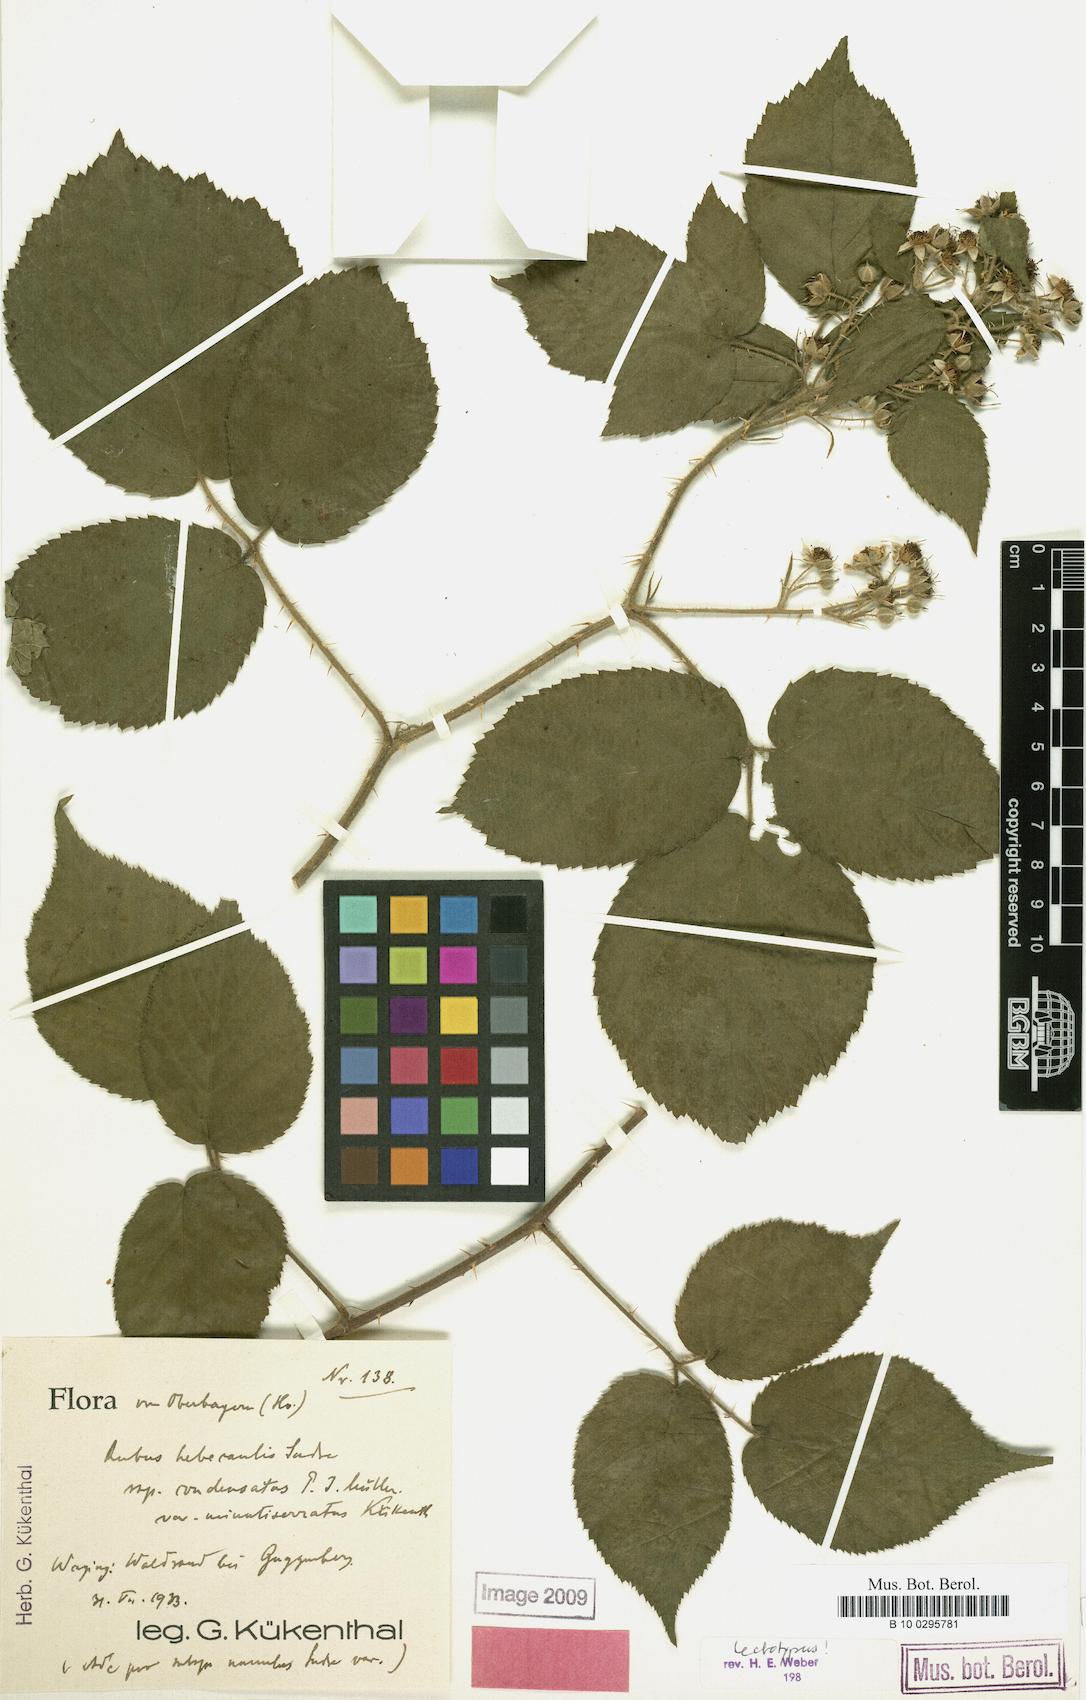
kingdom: Plantae
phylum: Tracheophyta
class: Magnoliopsida
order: Rosales
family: Rosaceae
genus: Rubus
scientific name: Rubus hebecaulis
